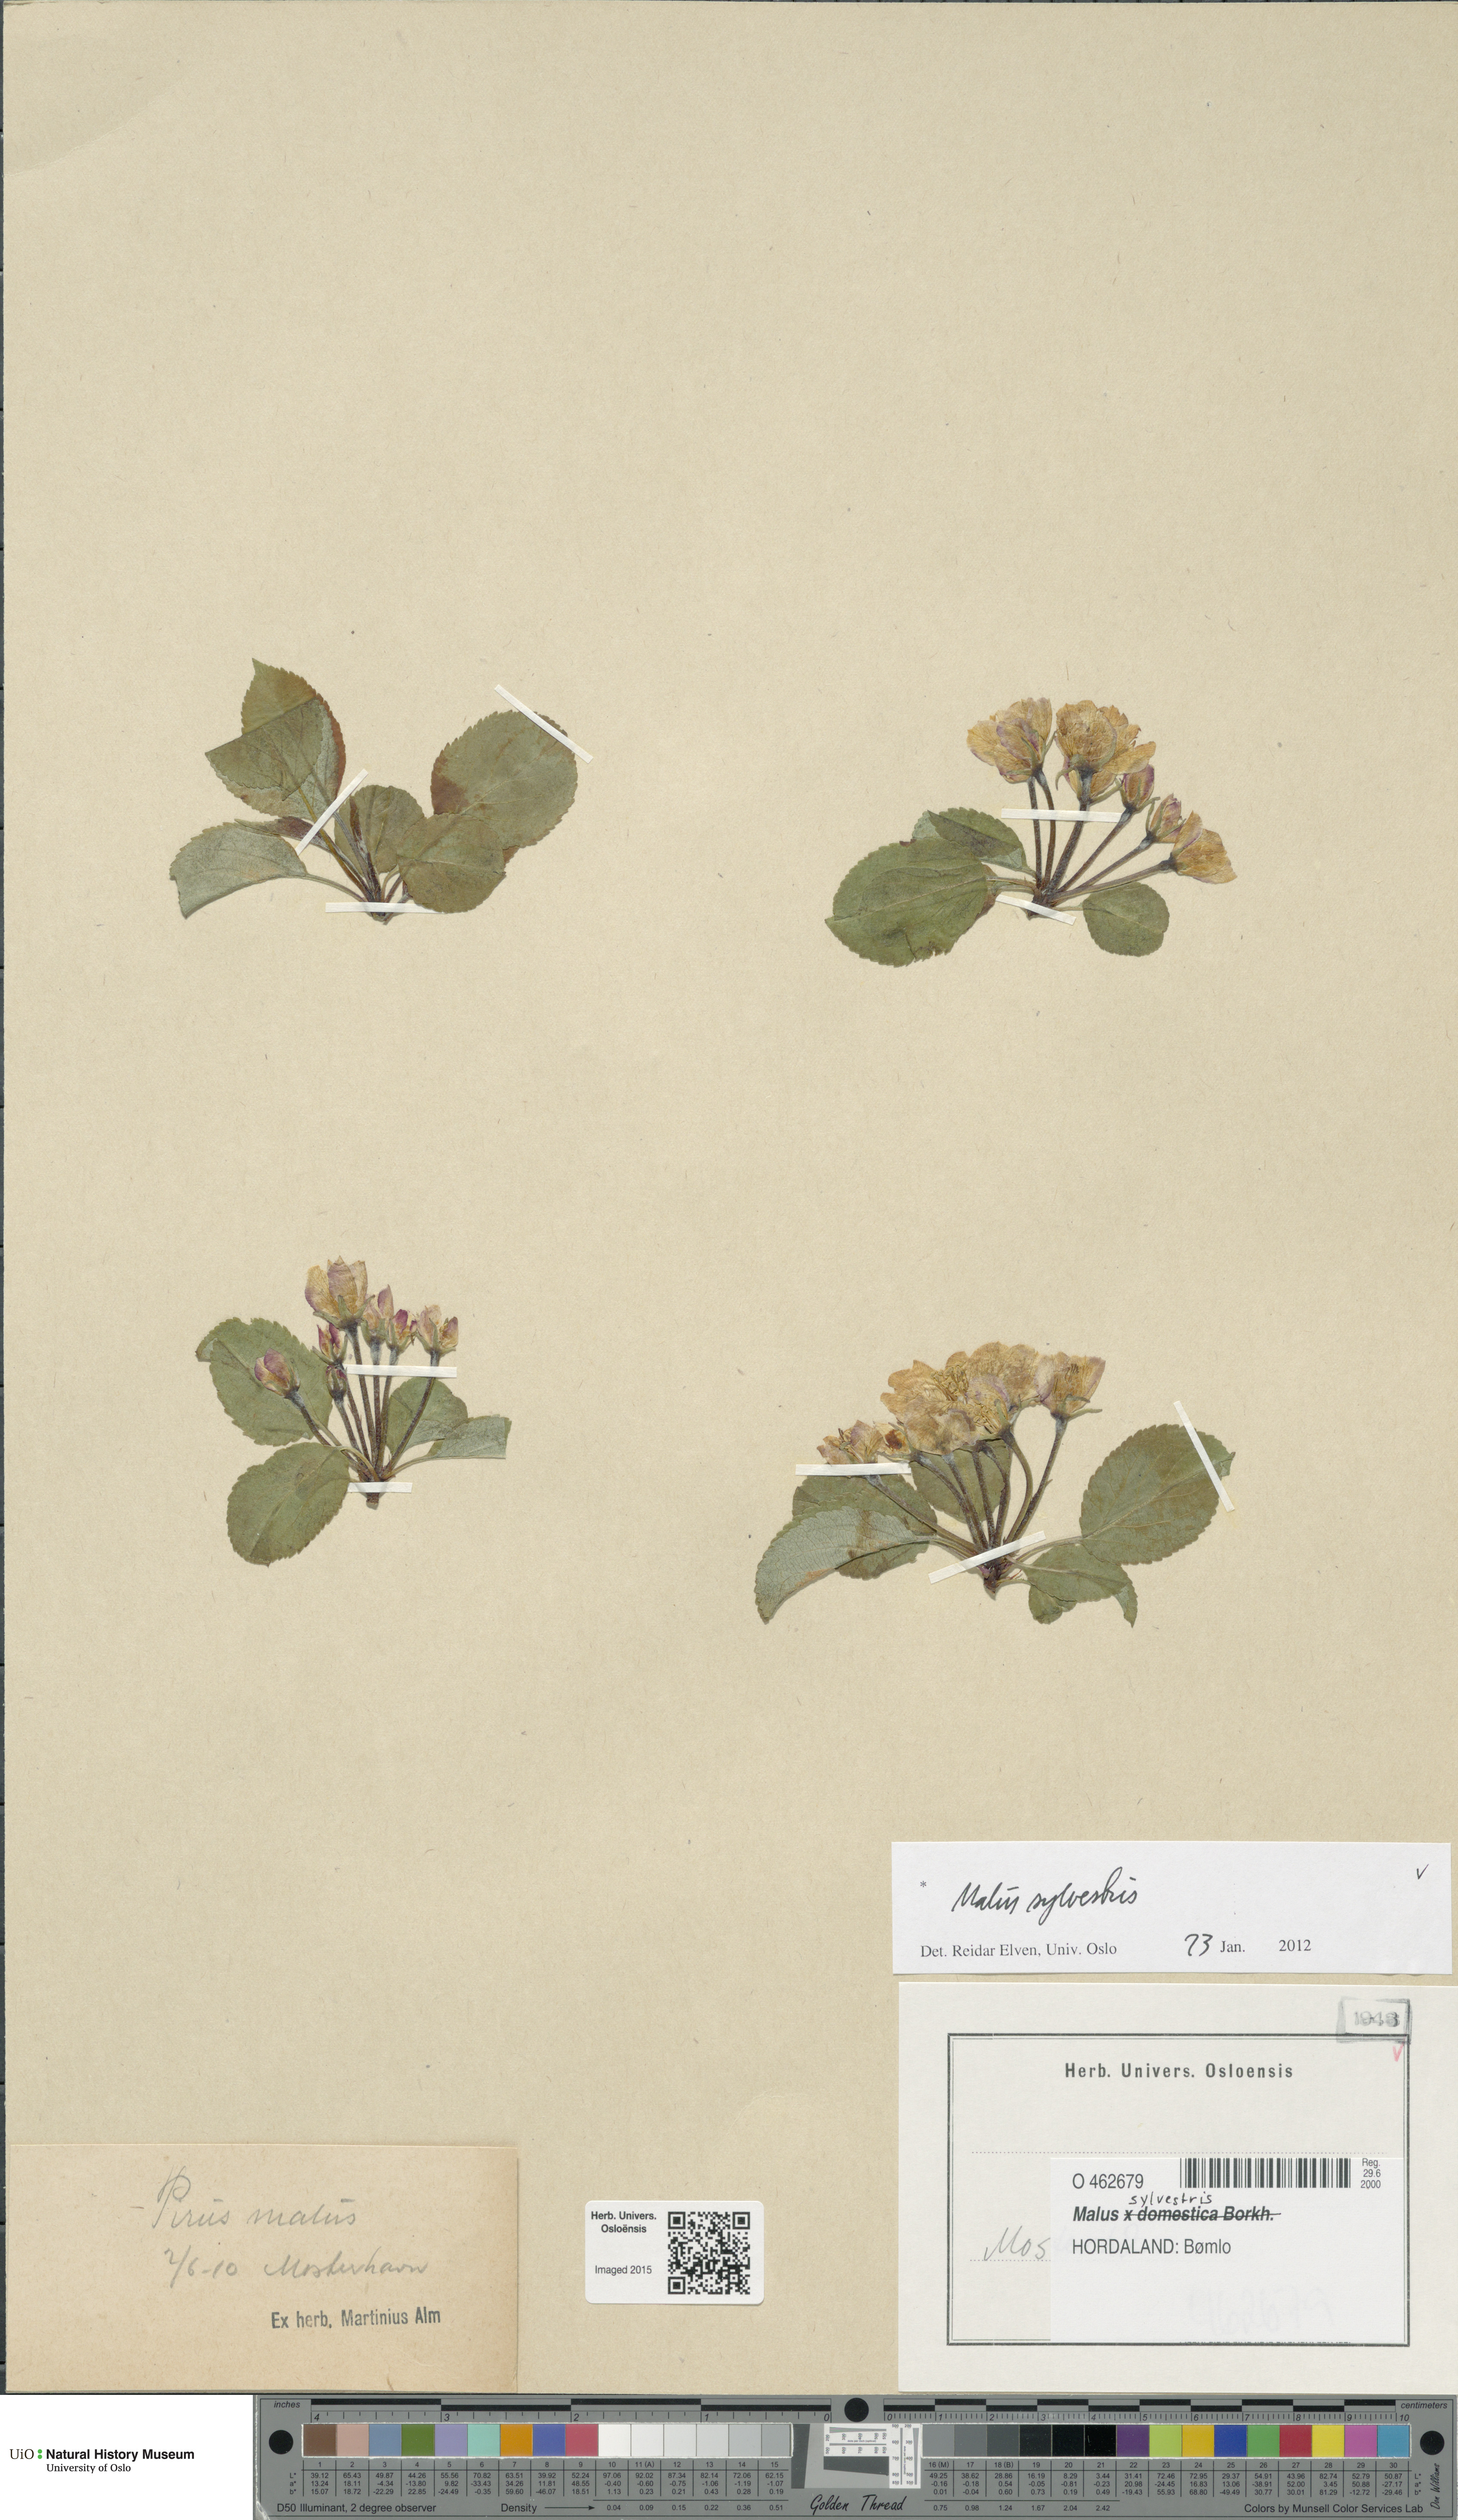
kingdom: Plantae
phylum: Tracheophyta
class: Magnoliopsida
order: Rosales
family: Rosaceae
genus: Malus
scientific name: Malus sylvestris
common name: Crab apple
